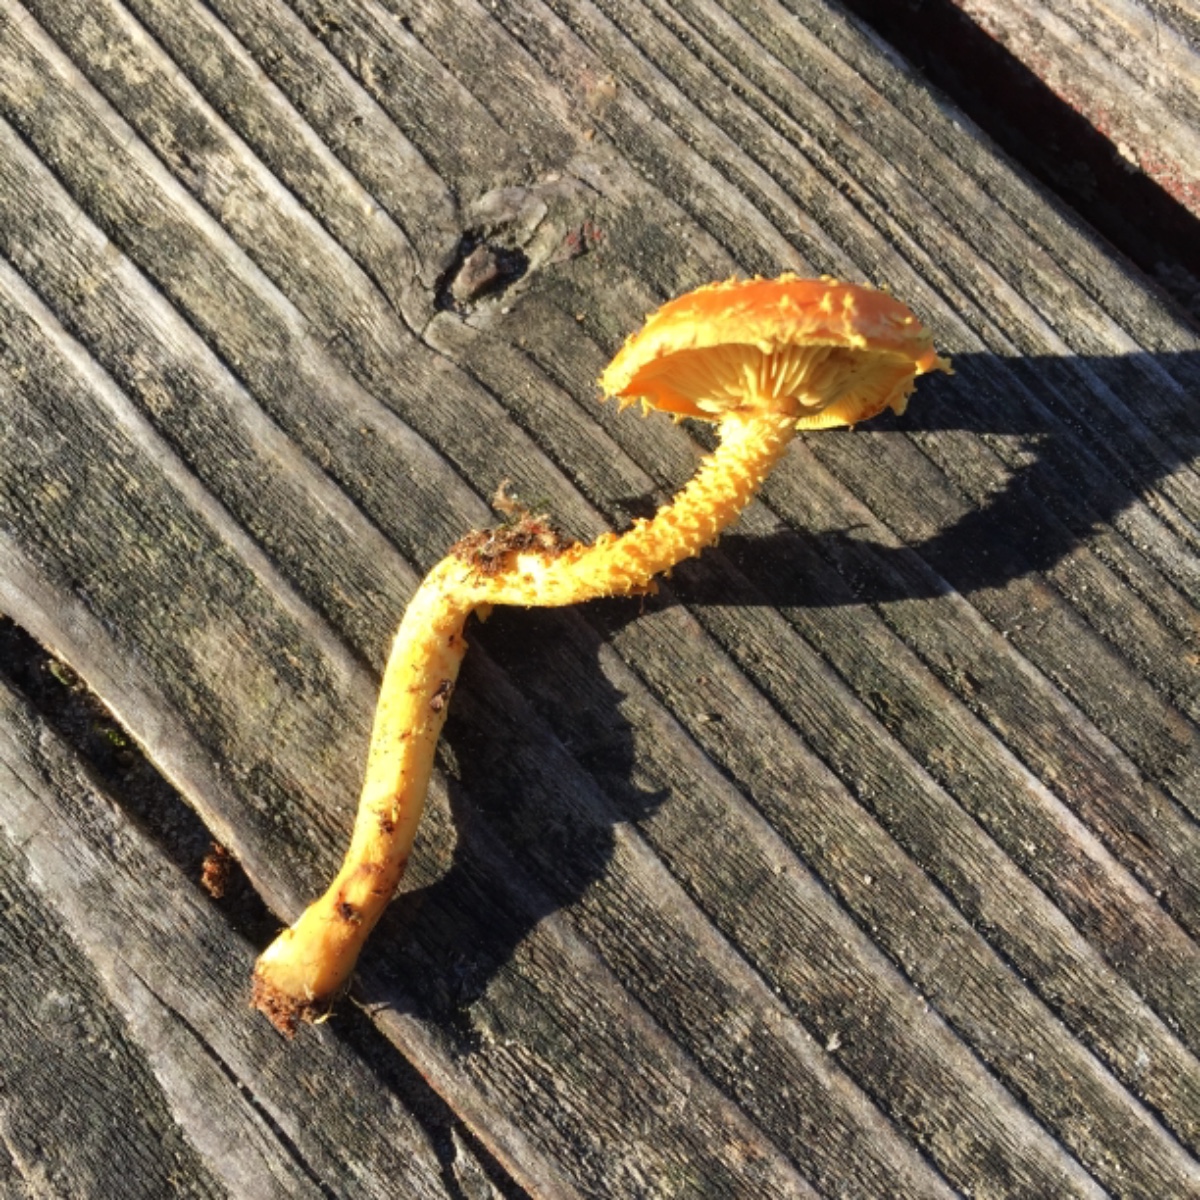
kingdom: Fungi
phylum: Basidiomycota
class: Agaricomycetes
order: Agaricales
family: Strophariaceae
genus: Pholiota
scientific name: Pholiota flammans
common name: flamme-skælhat
